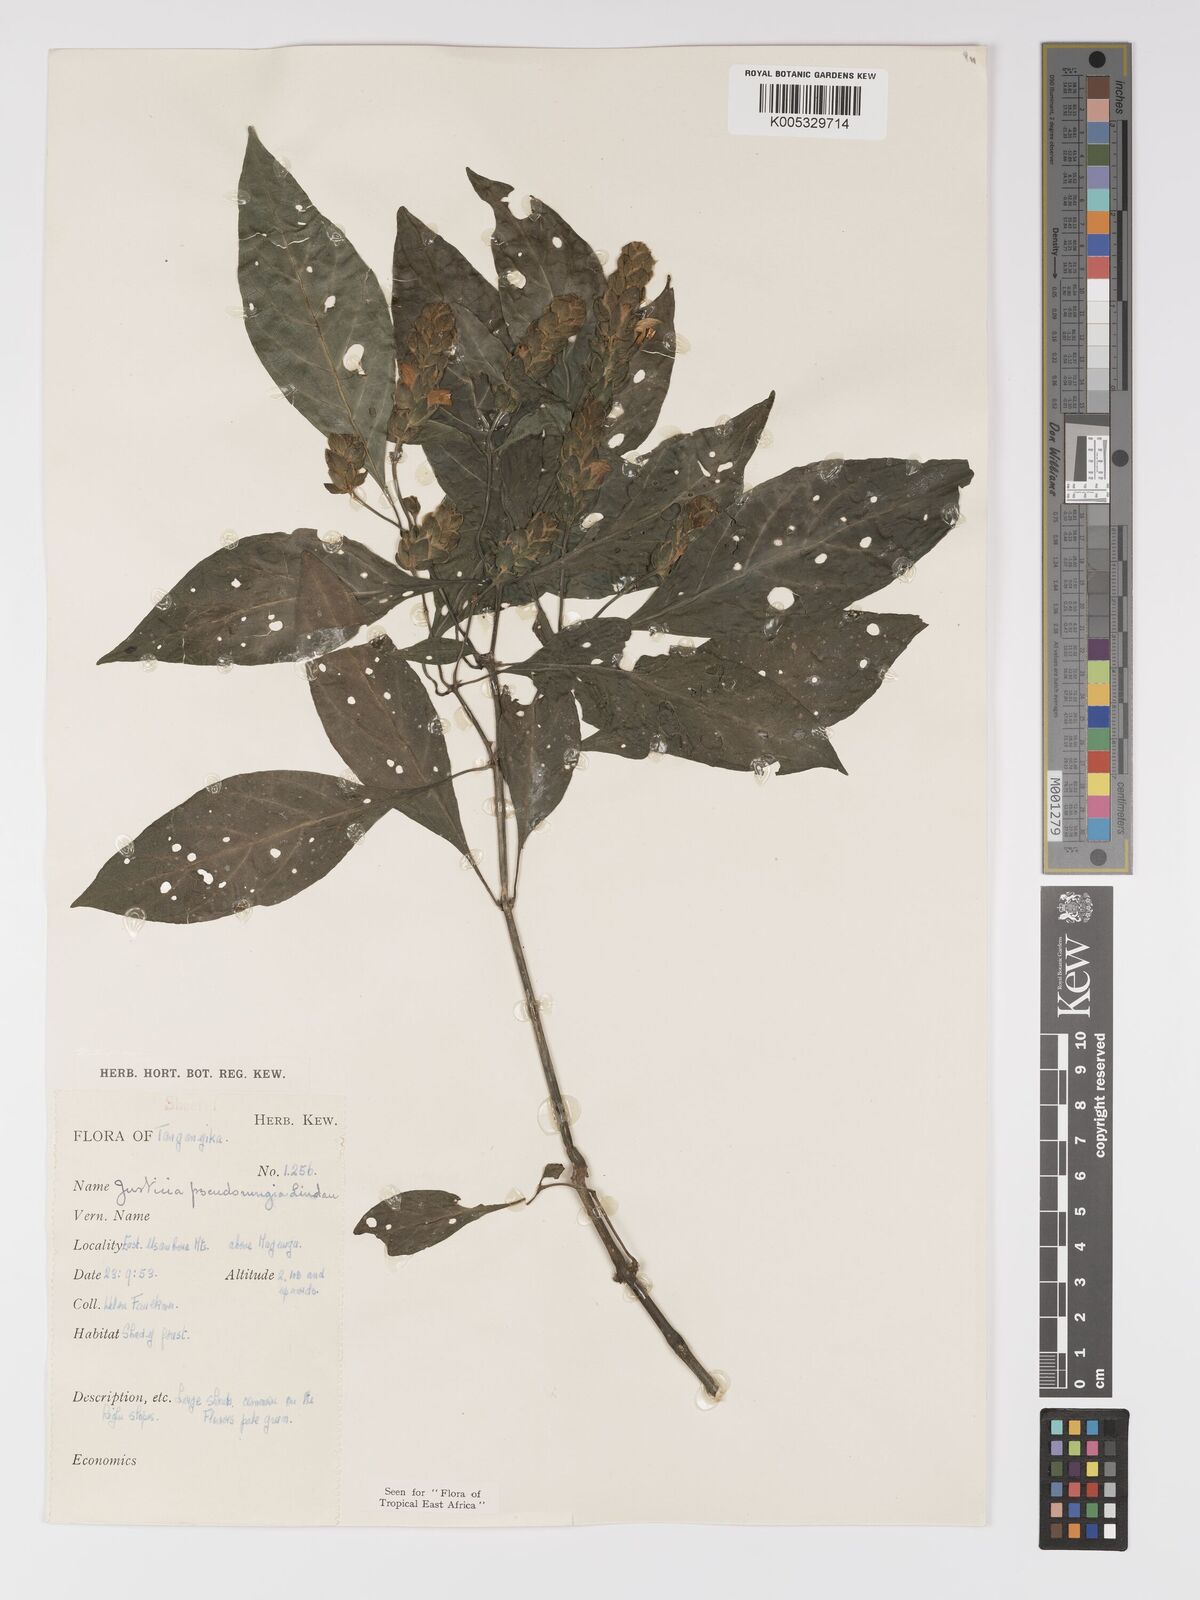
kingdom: Plantae
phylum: Tracheophyta
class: Magnoliopsida
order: Lamiales
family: Acanthaceae
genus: Justicia
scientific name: Justicia pseudorungia
